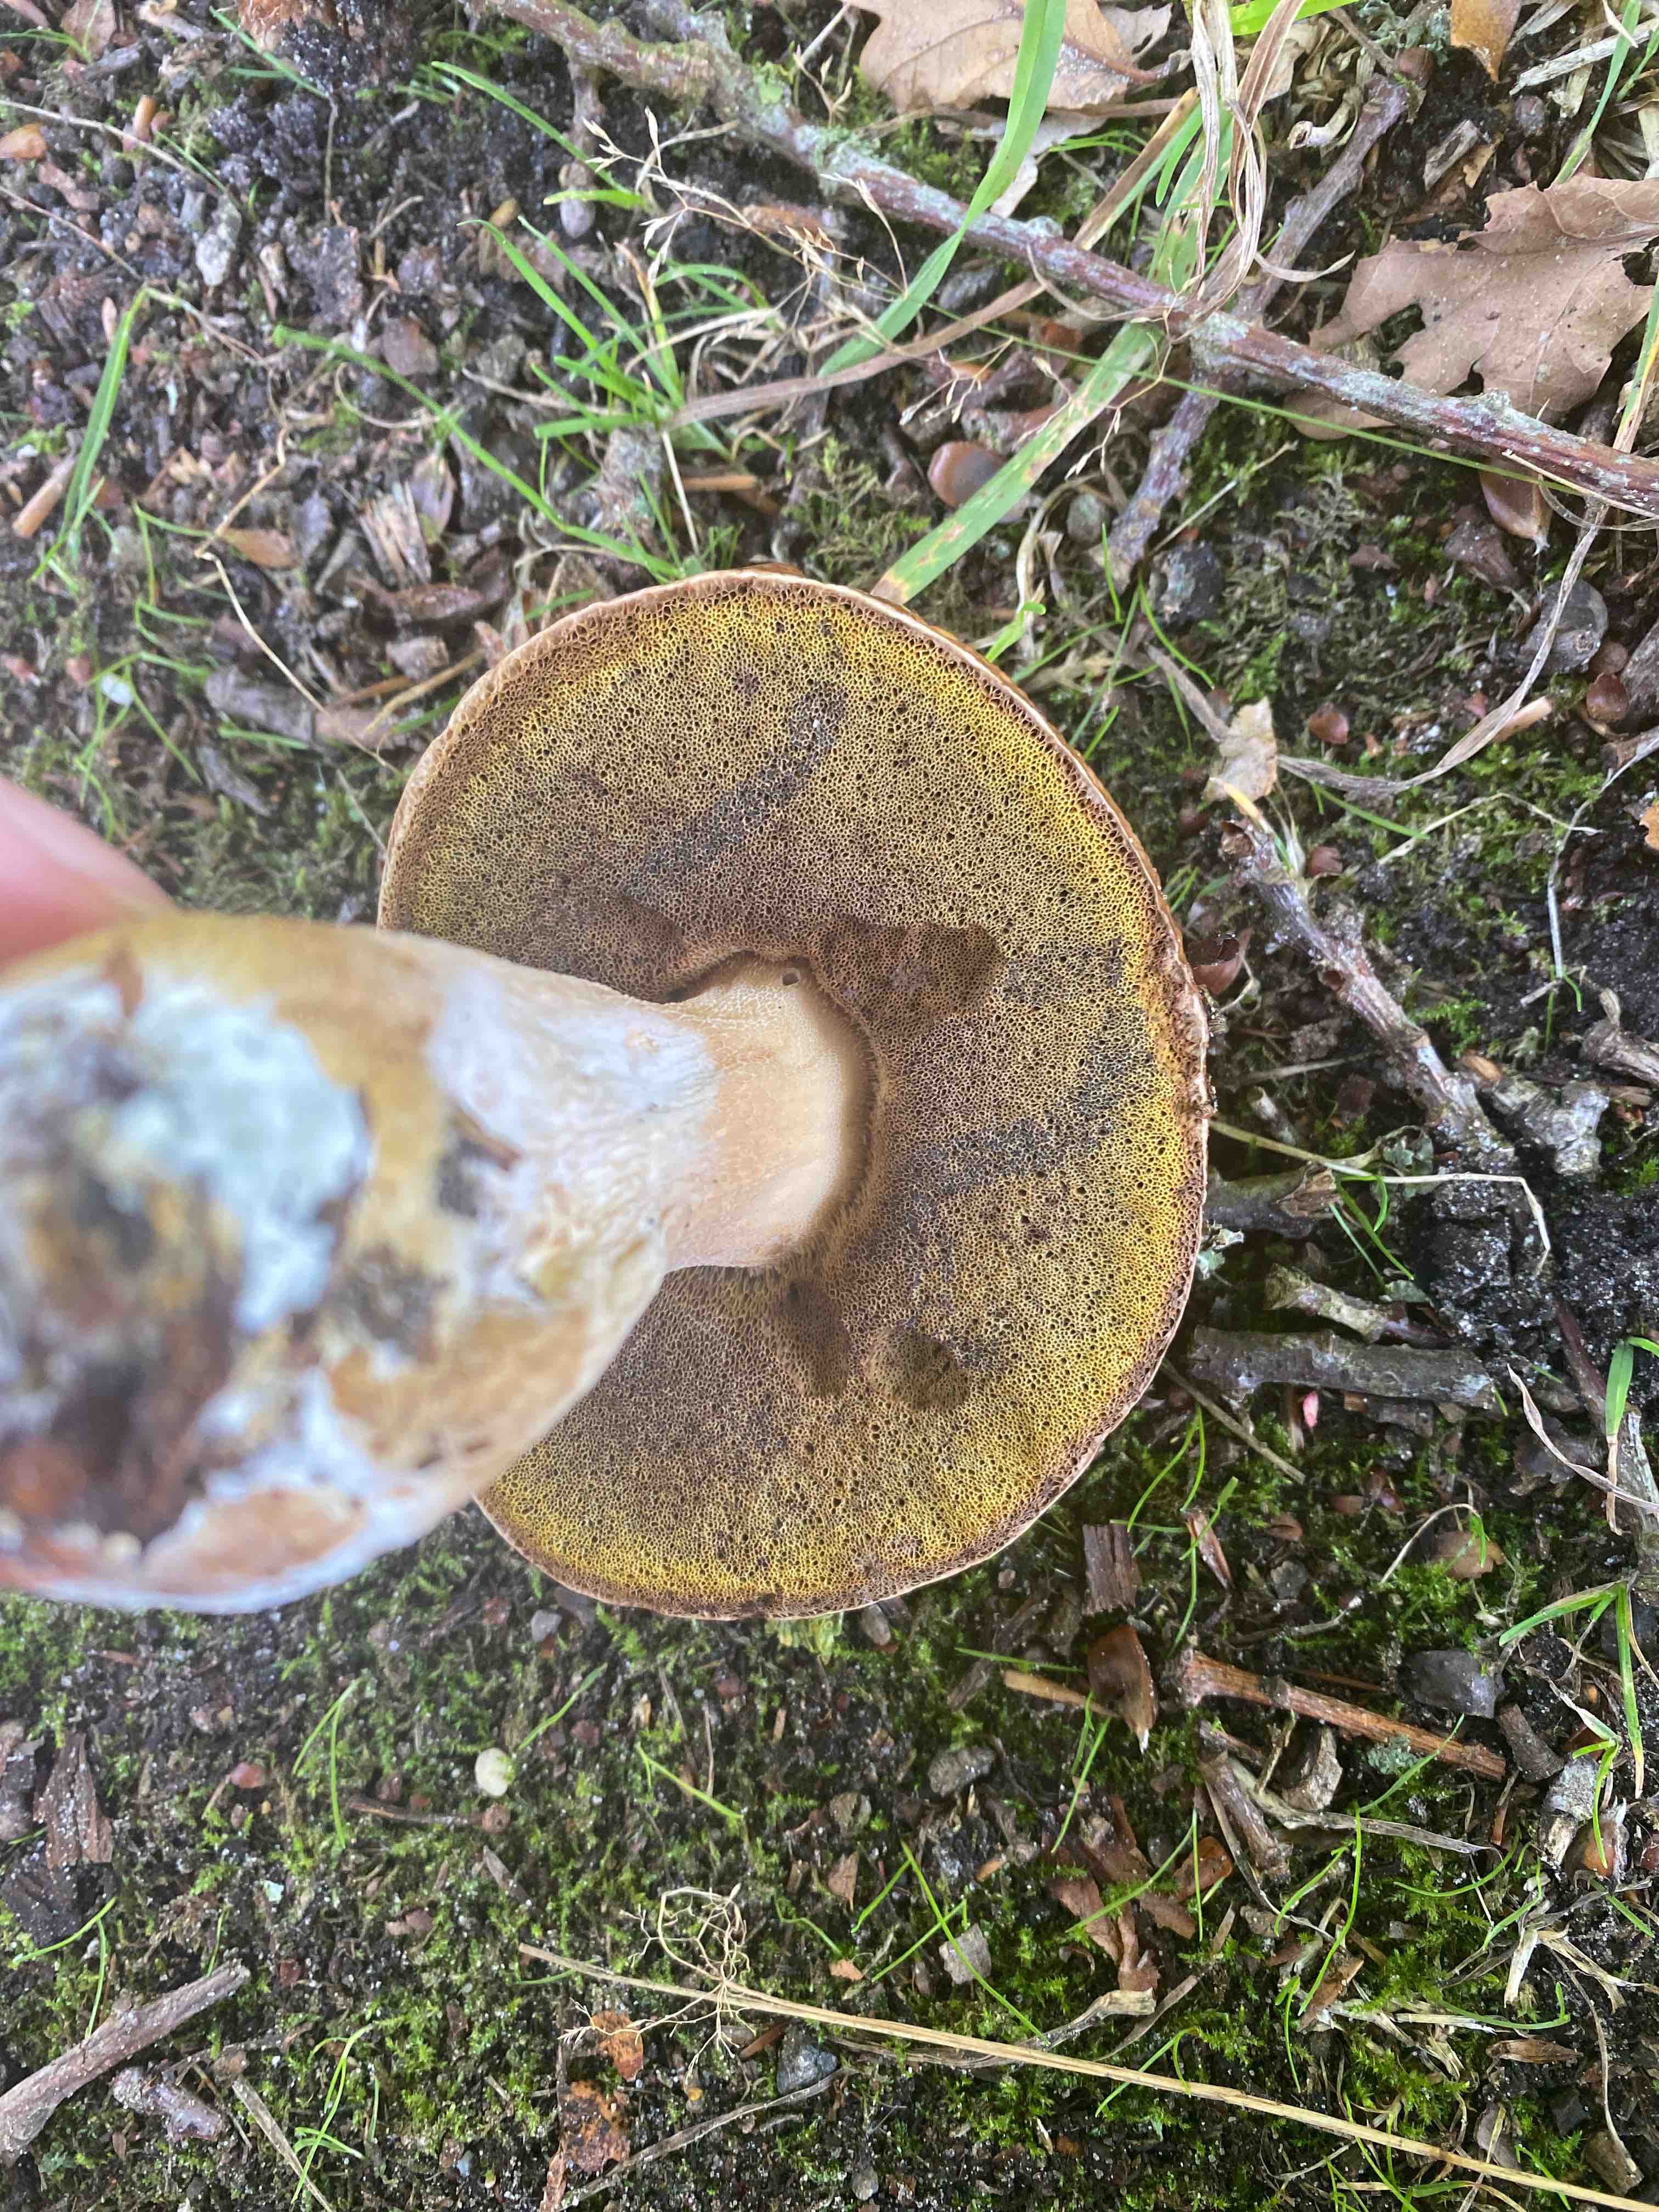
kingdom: Fungi
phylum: Basidiomycota
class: Agaricomycetes
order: Boletales
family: Boletaceae
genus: Boletus
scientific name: Boletus edulis
